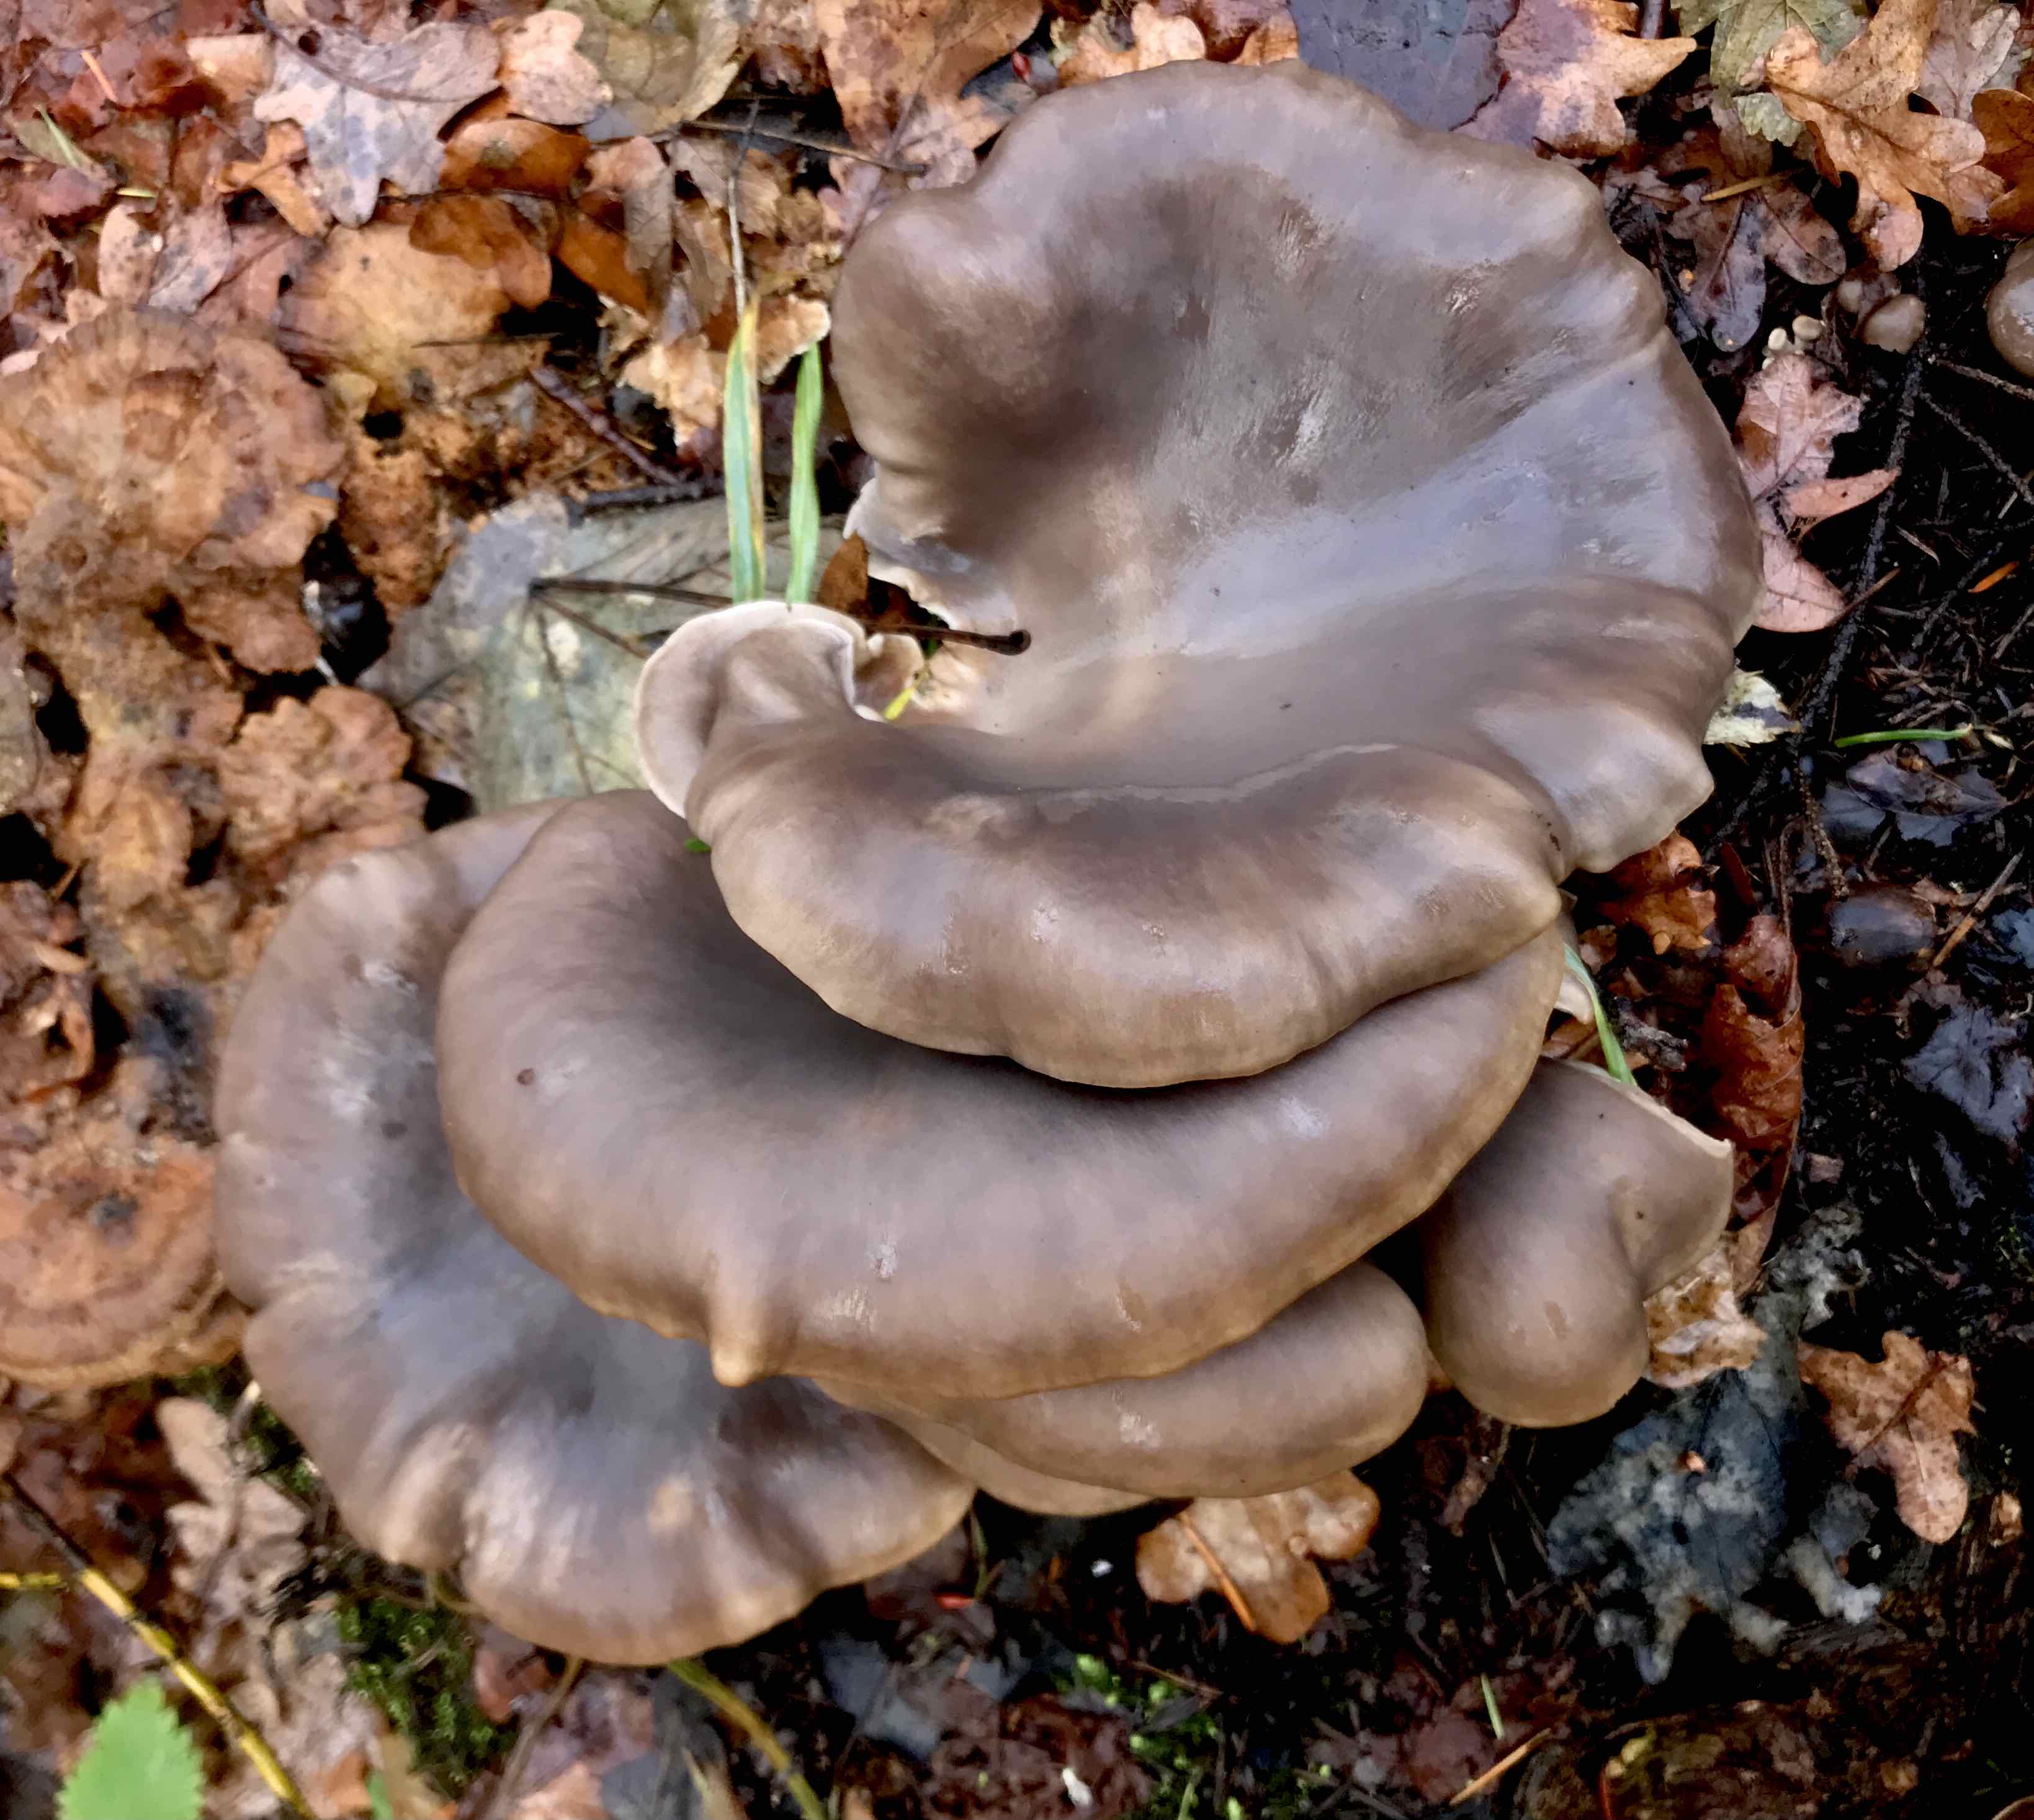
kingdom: Fungi
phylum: Basidiomycota
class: Agaricomycetes
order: Agaricales
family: Pleurotaceae
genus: Pleurotus
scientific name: Pleurotus ostreatus
